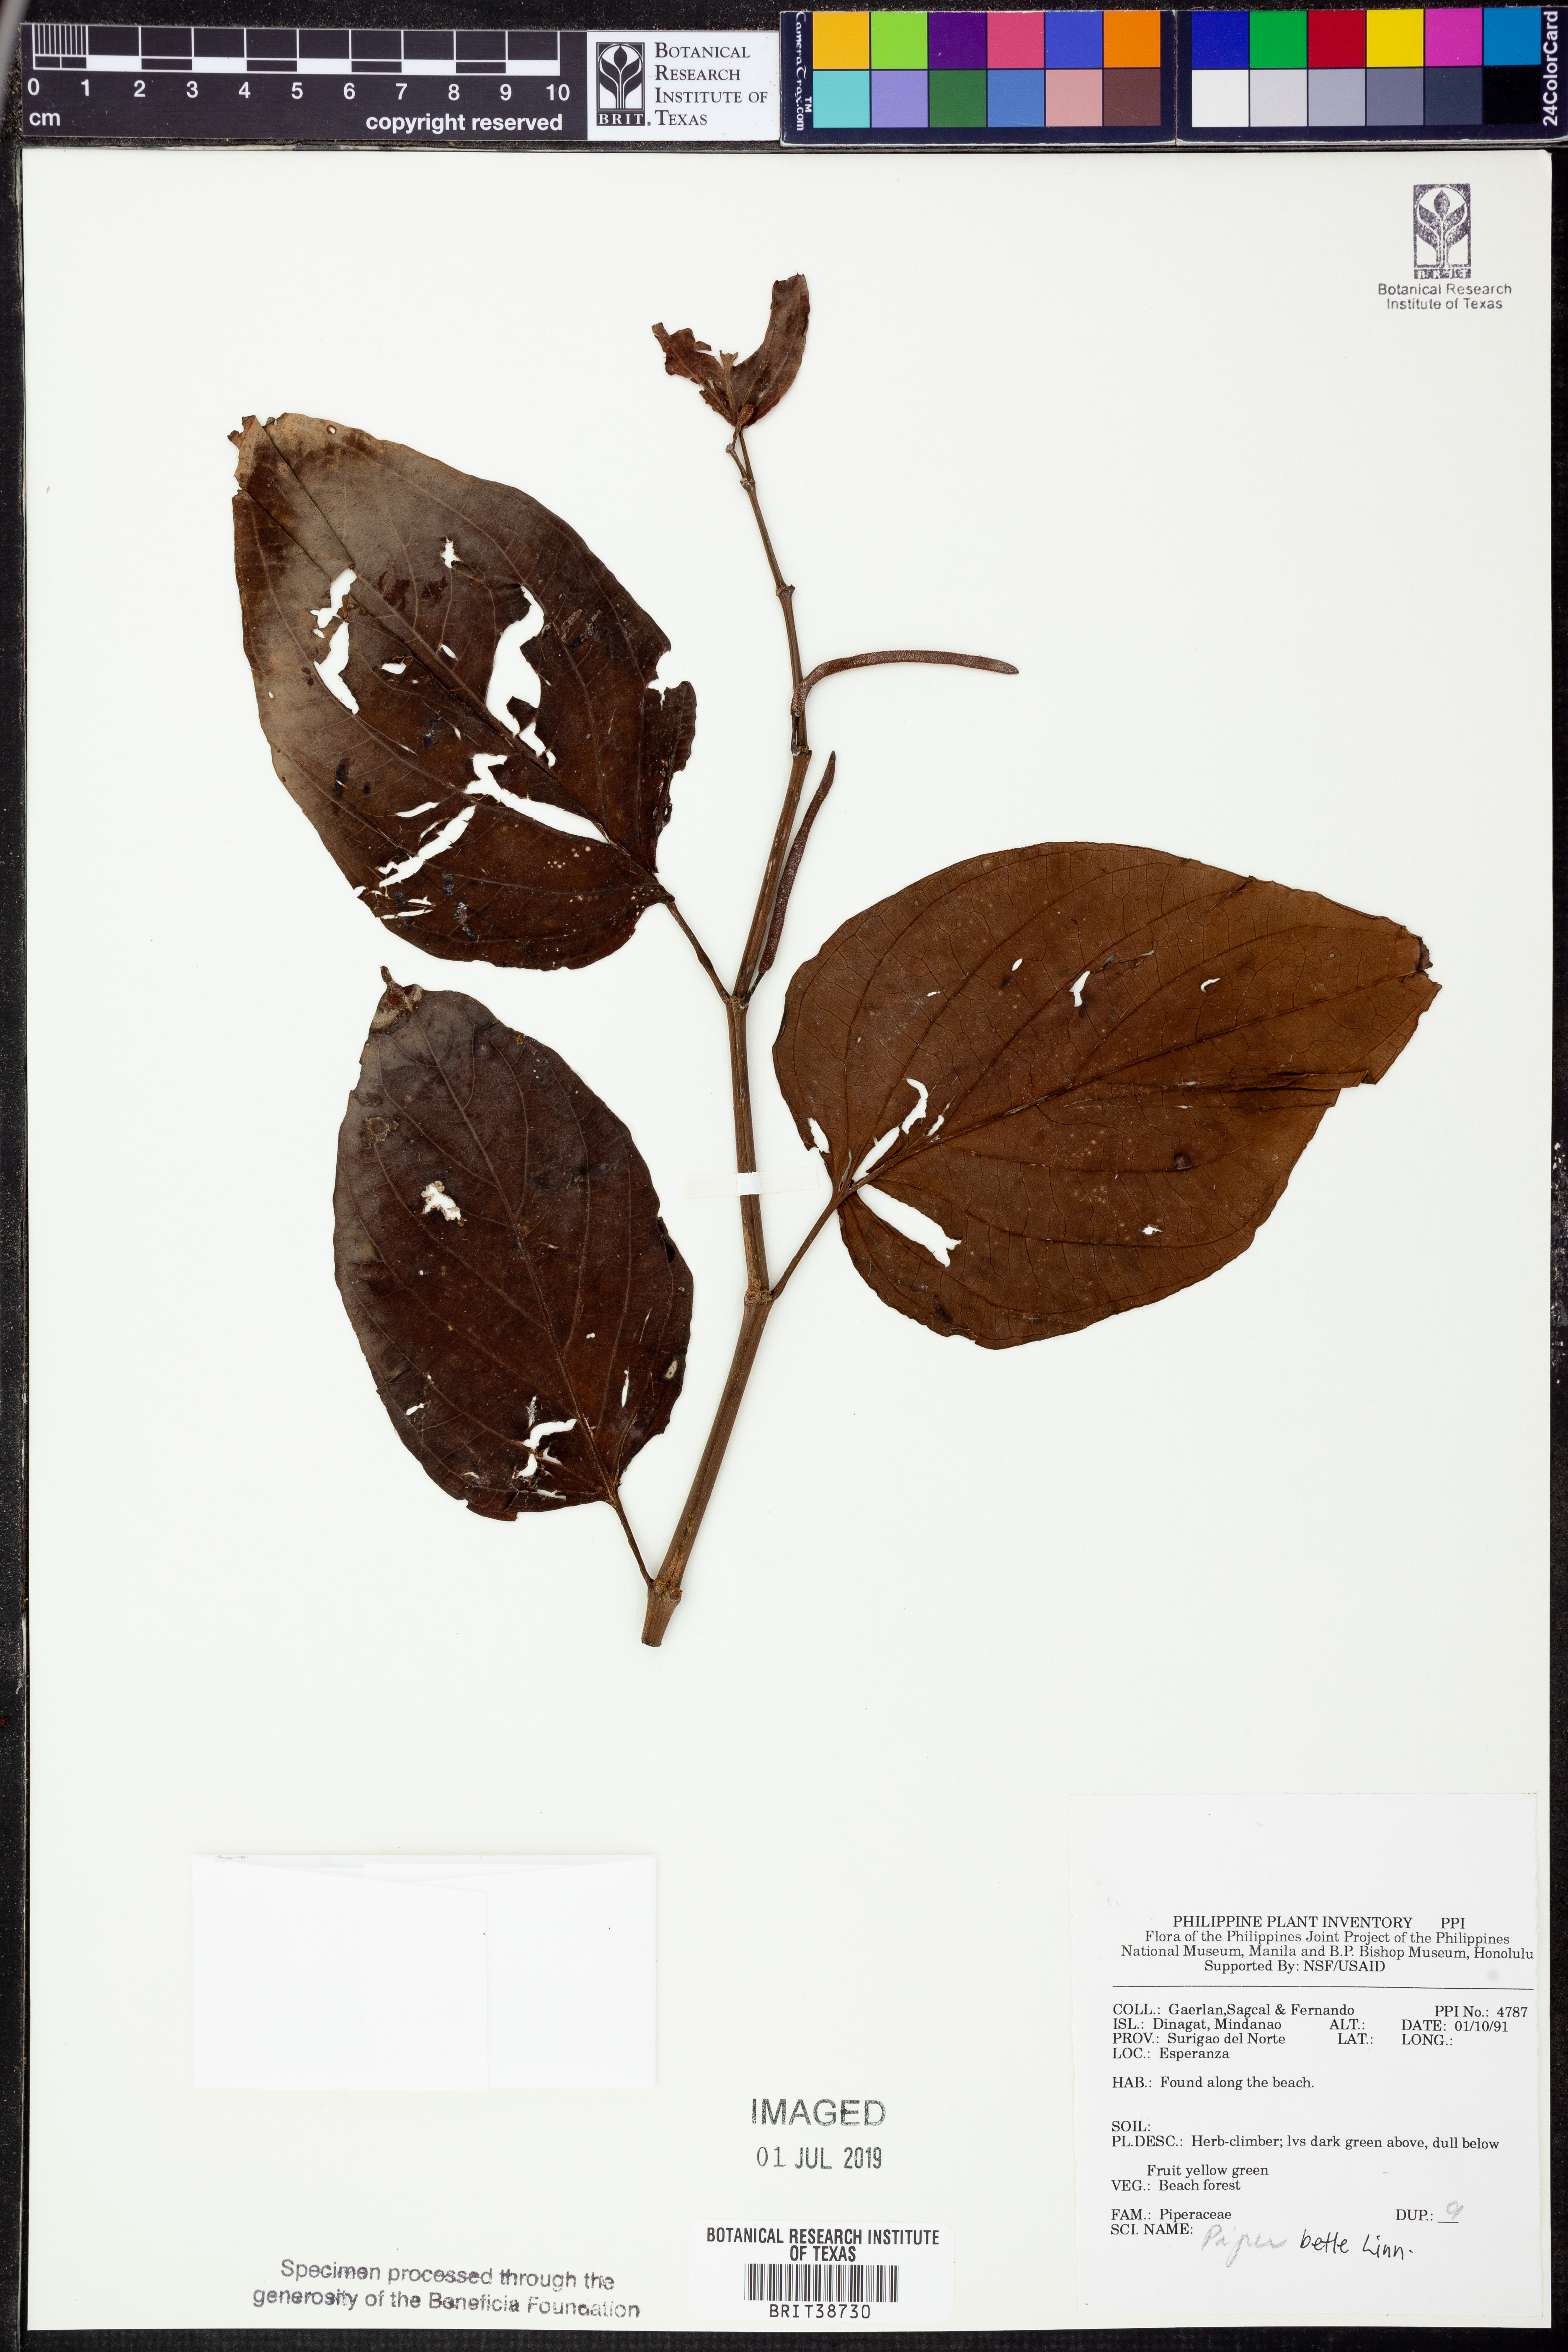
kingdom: Plantae
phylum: Tracheophyta
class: Magnoliopsida
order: Piperales
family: Piperaceae
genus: Piper
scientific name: Piper celtidiforme
